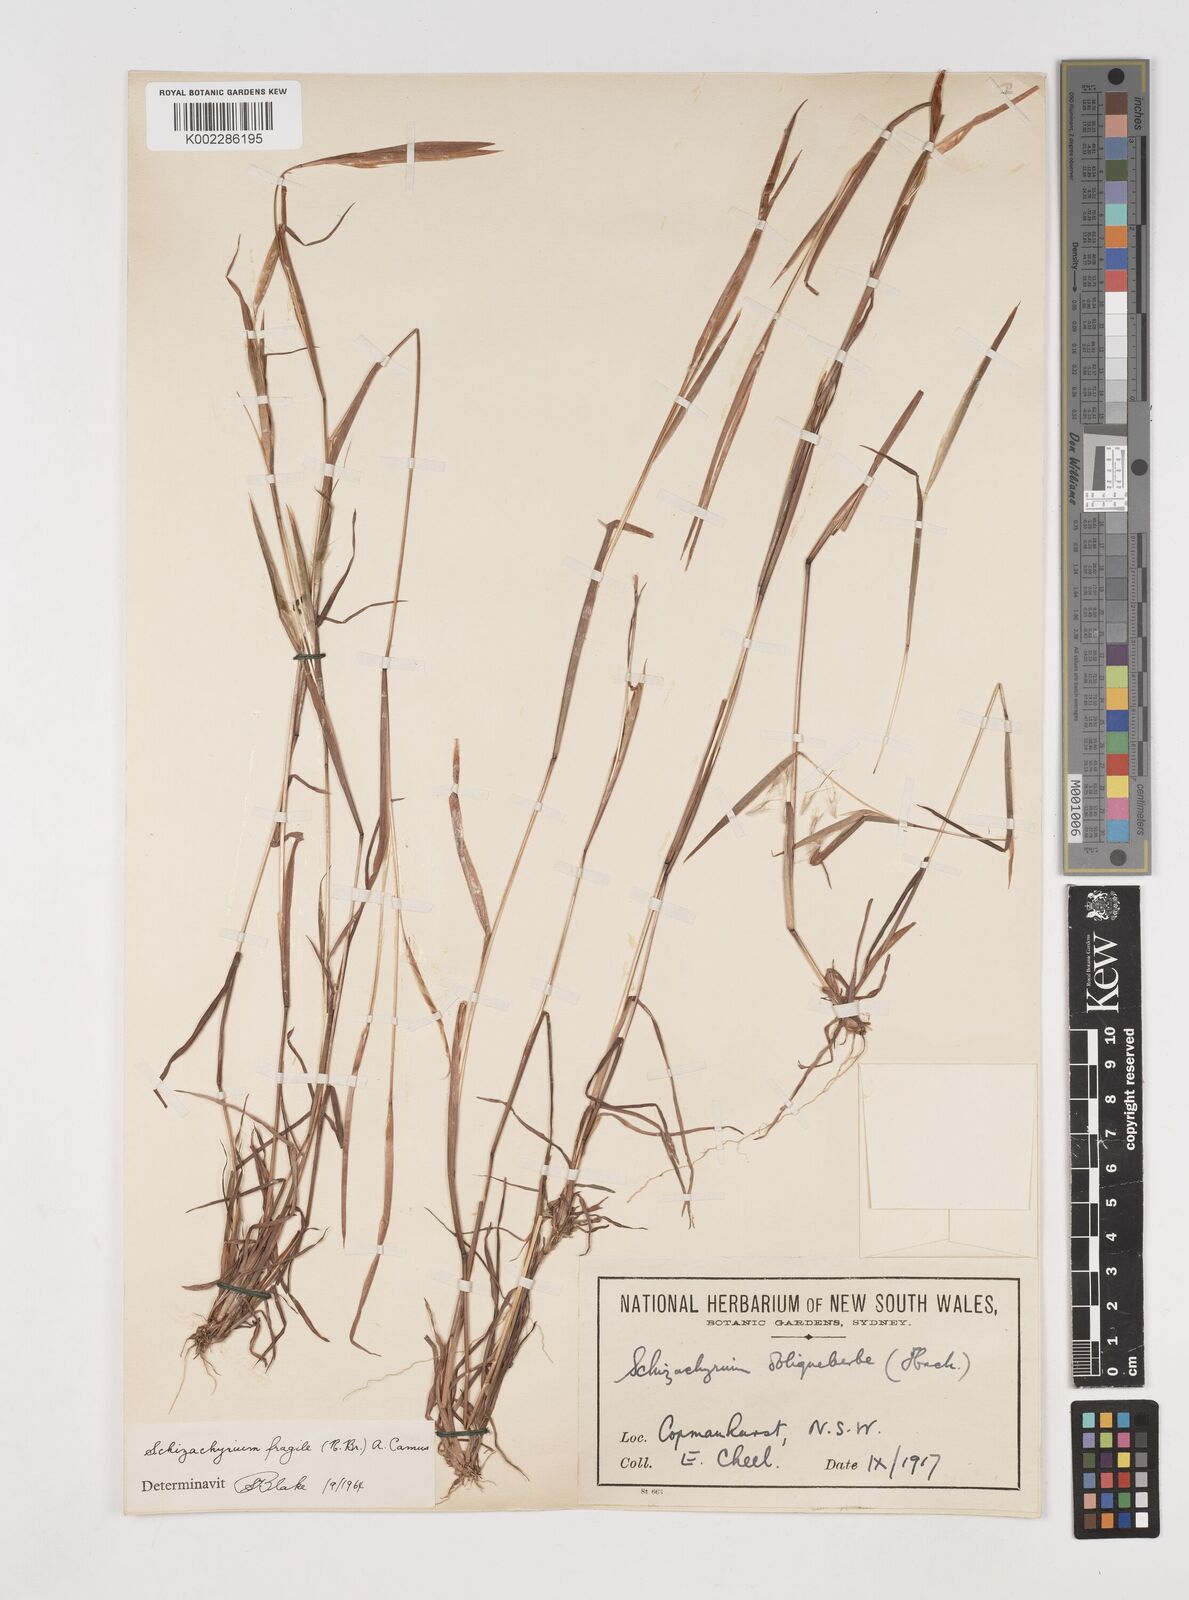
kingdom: Plantae
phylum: Tracheophyta
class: Liliopsida
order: Poales
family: Poaceae
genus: Schizachyrium
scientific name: Schizachyrium fragile
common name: Red spathe grass
